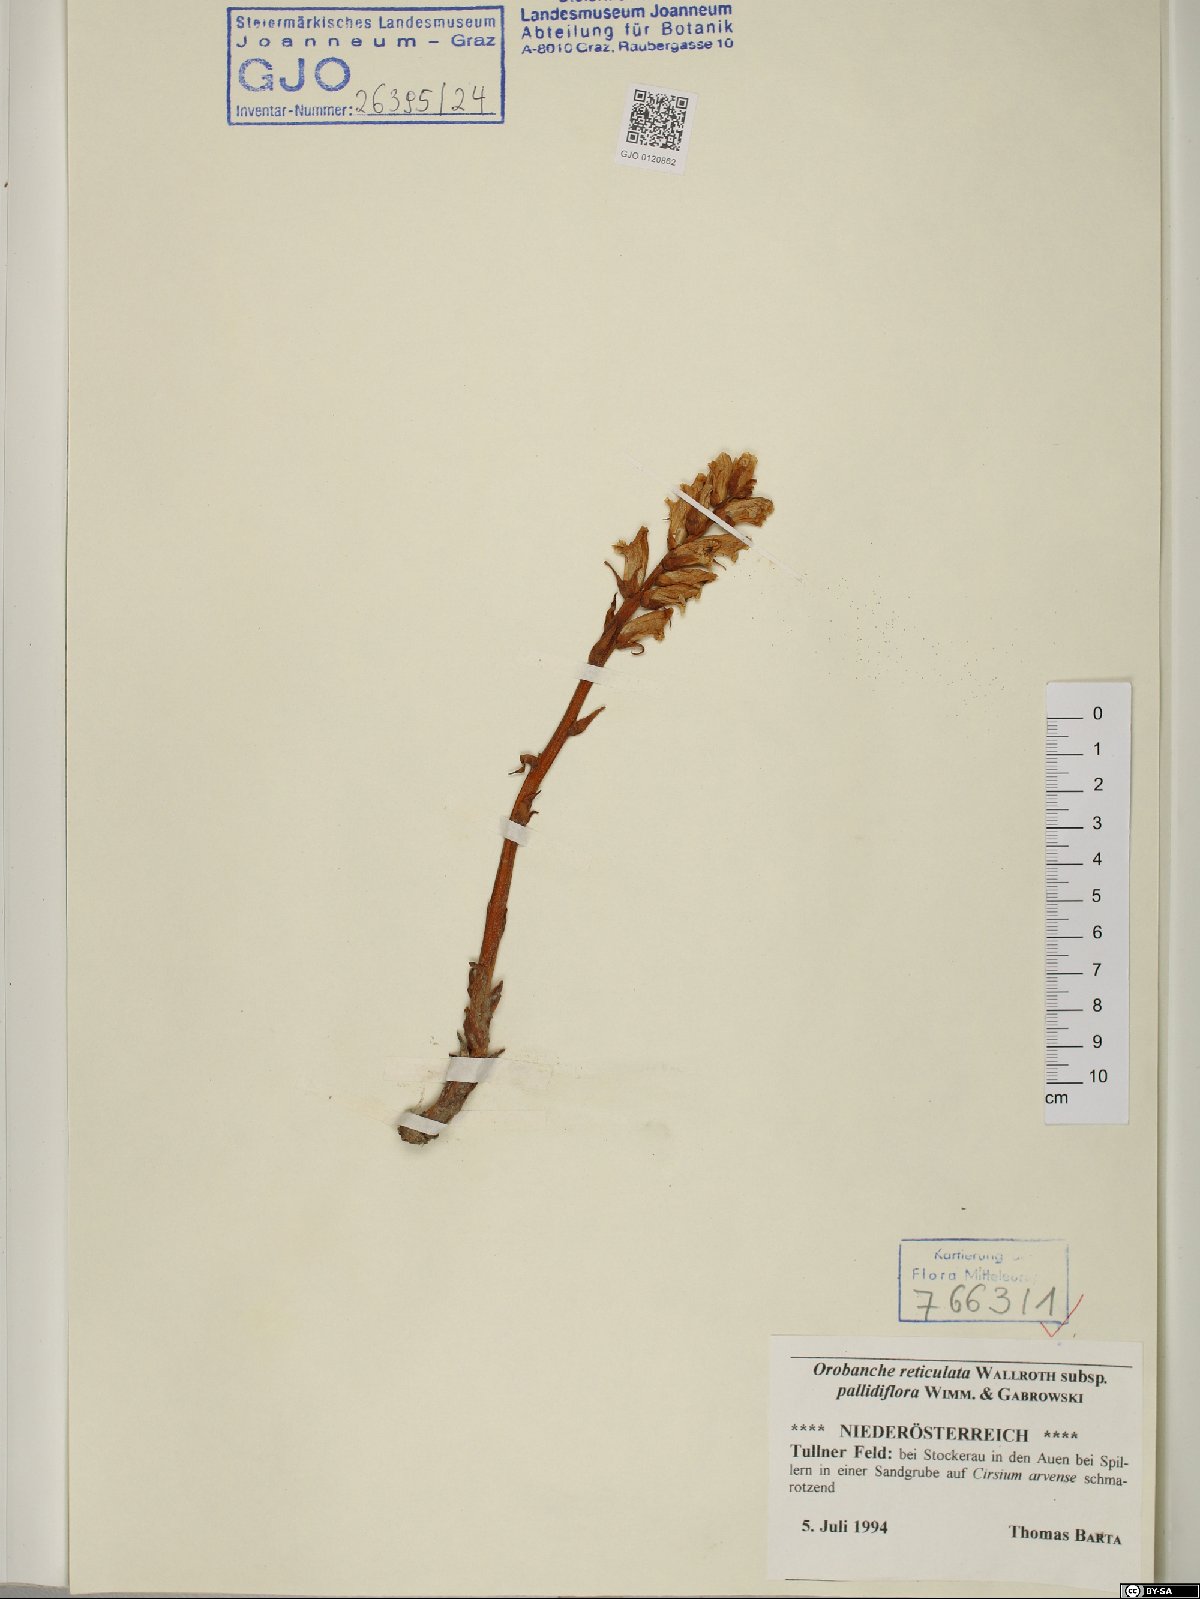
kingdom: Plantae
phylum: Tracheophyta
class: Magnoliopsida
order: Lamiales
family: Orobanchaceae
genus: Orobanche
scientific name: Orobanche reticulata
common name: Thistle broomrape
